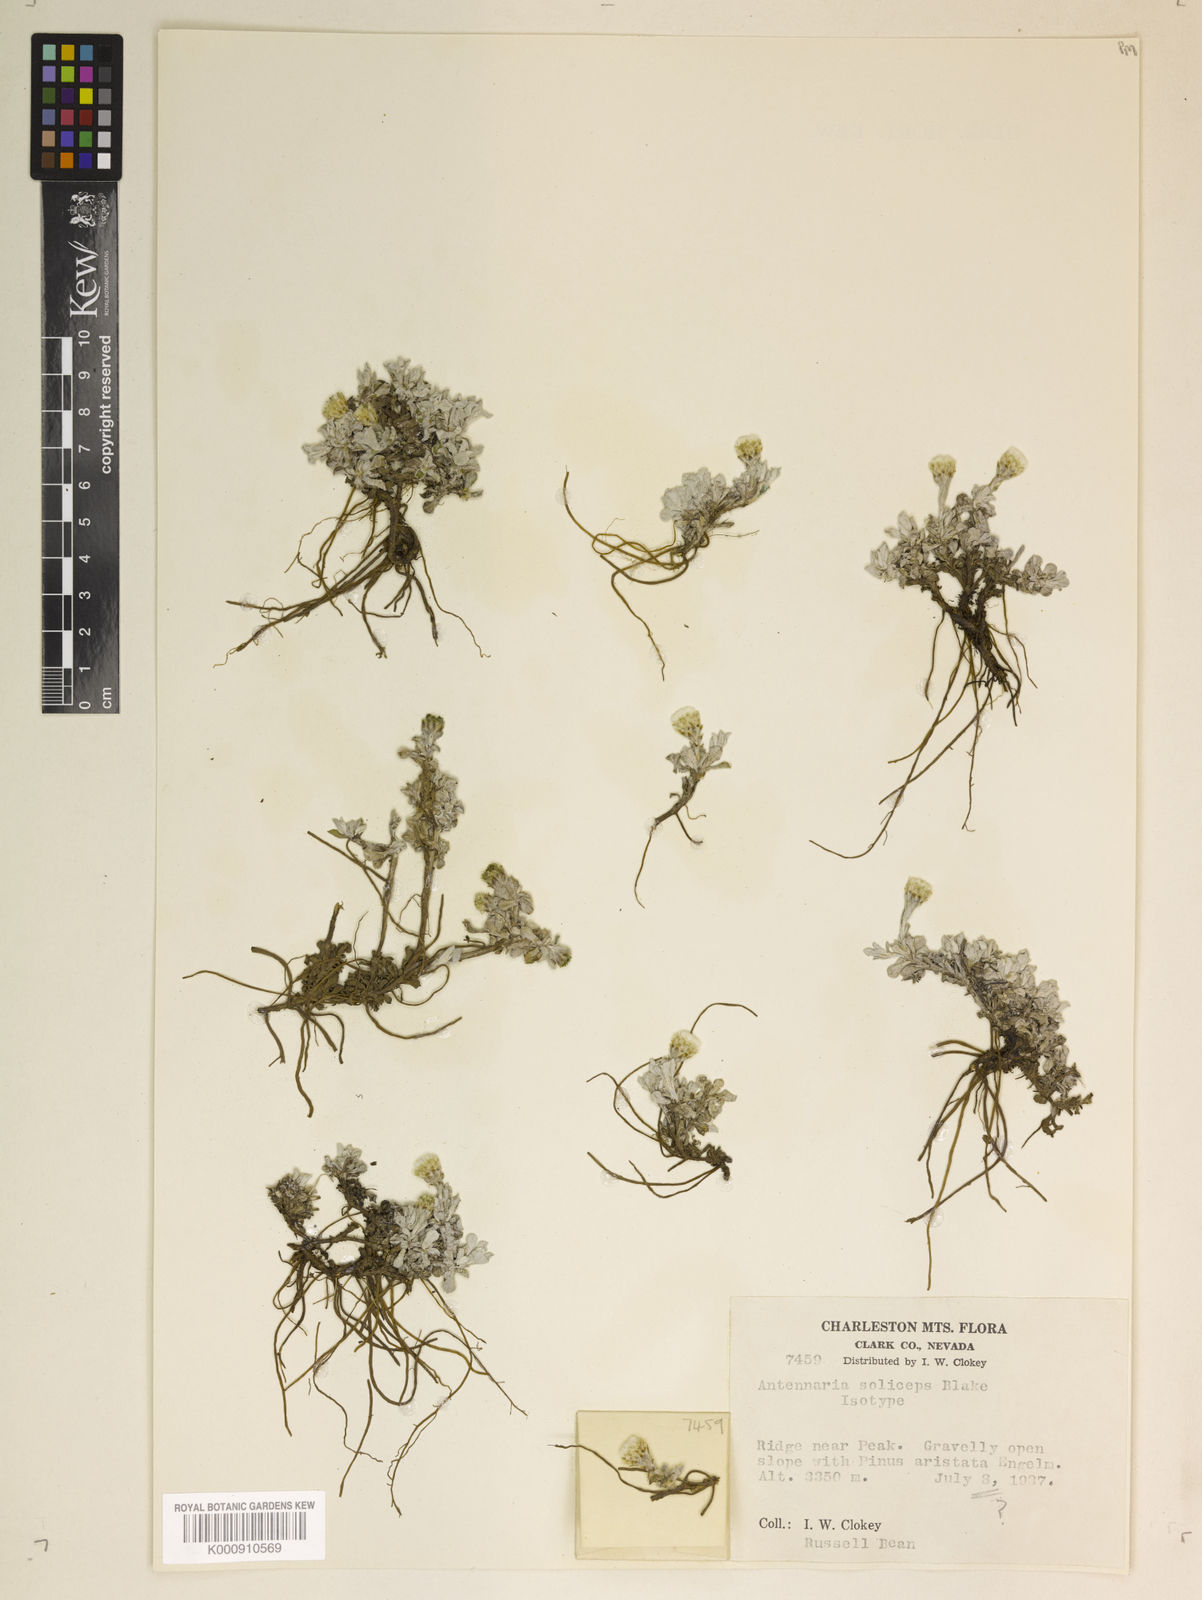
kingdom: Plantae
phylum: Tracheophyta
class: Magnoliopsida
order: Asterales
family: Asteraceae
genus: Antennaria
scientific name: Antennaria soliceps
